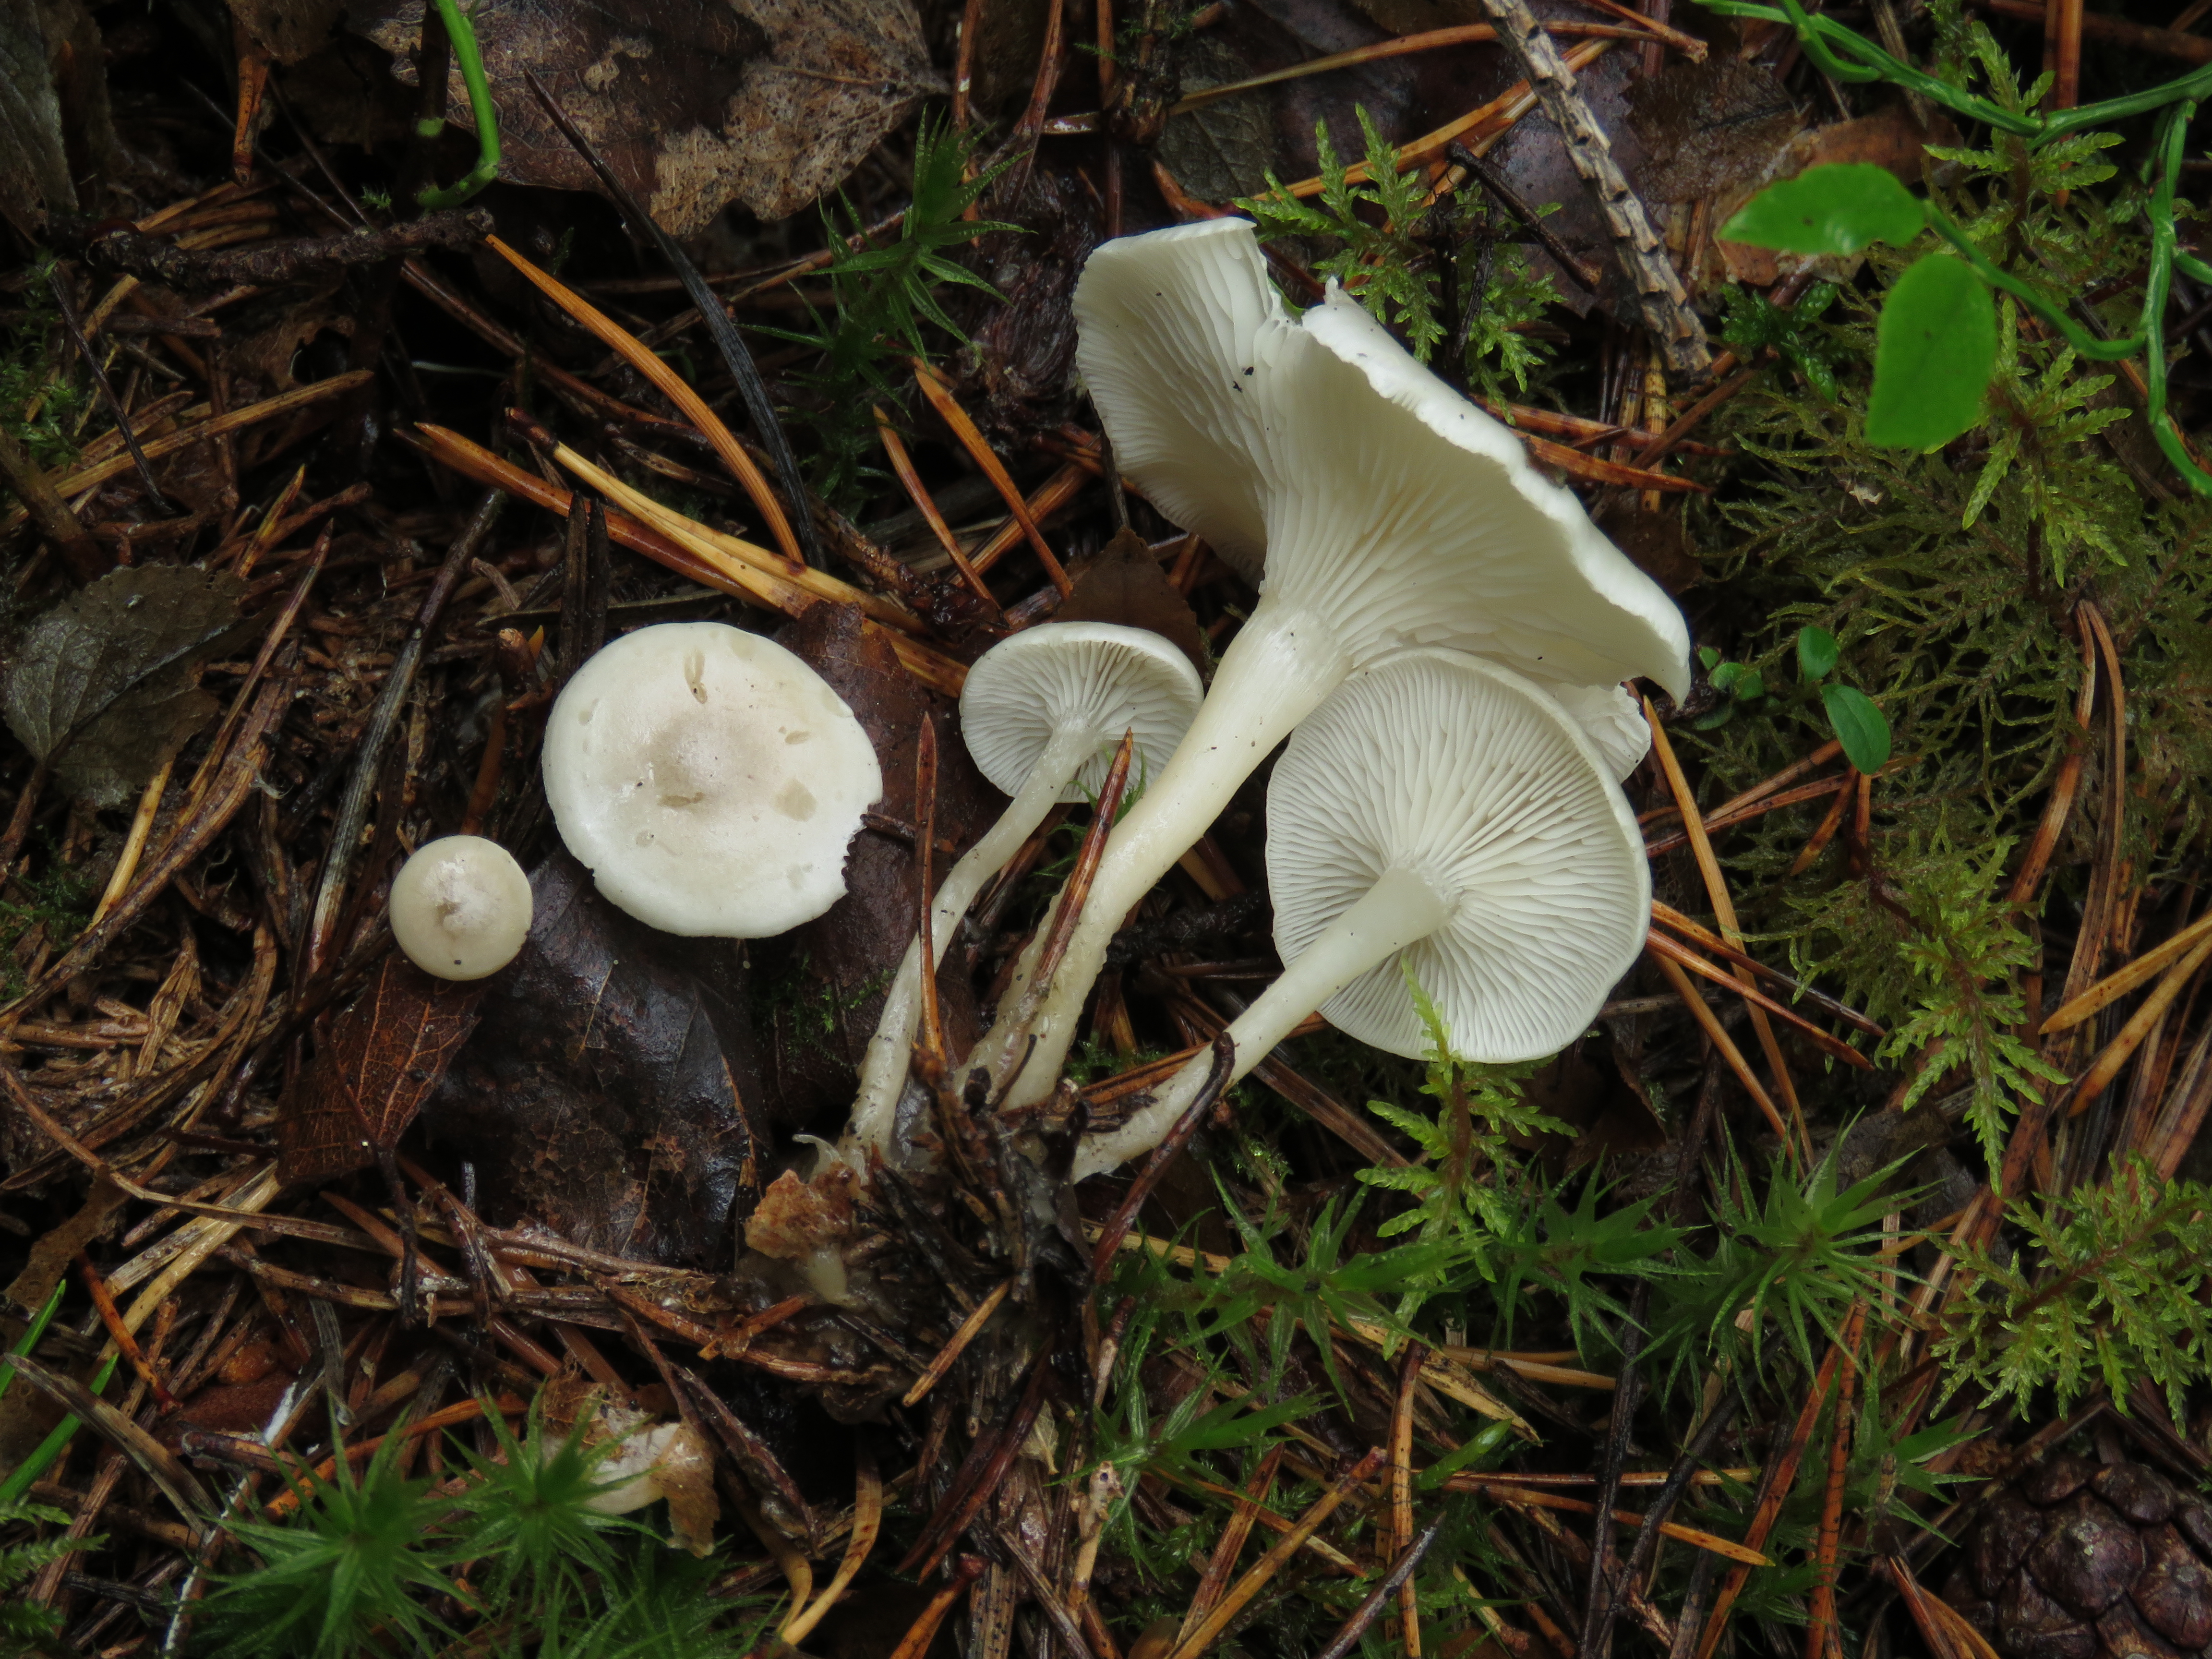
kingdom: Fungi
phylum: Basidiomycota
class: Agaricomycetes
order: Agaricales
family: Tricholomataceae
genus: Leucocybe
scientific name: Leucocybe candicans
